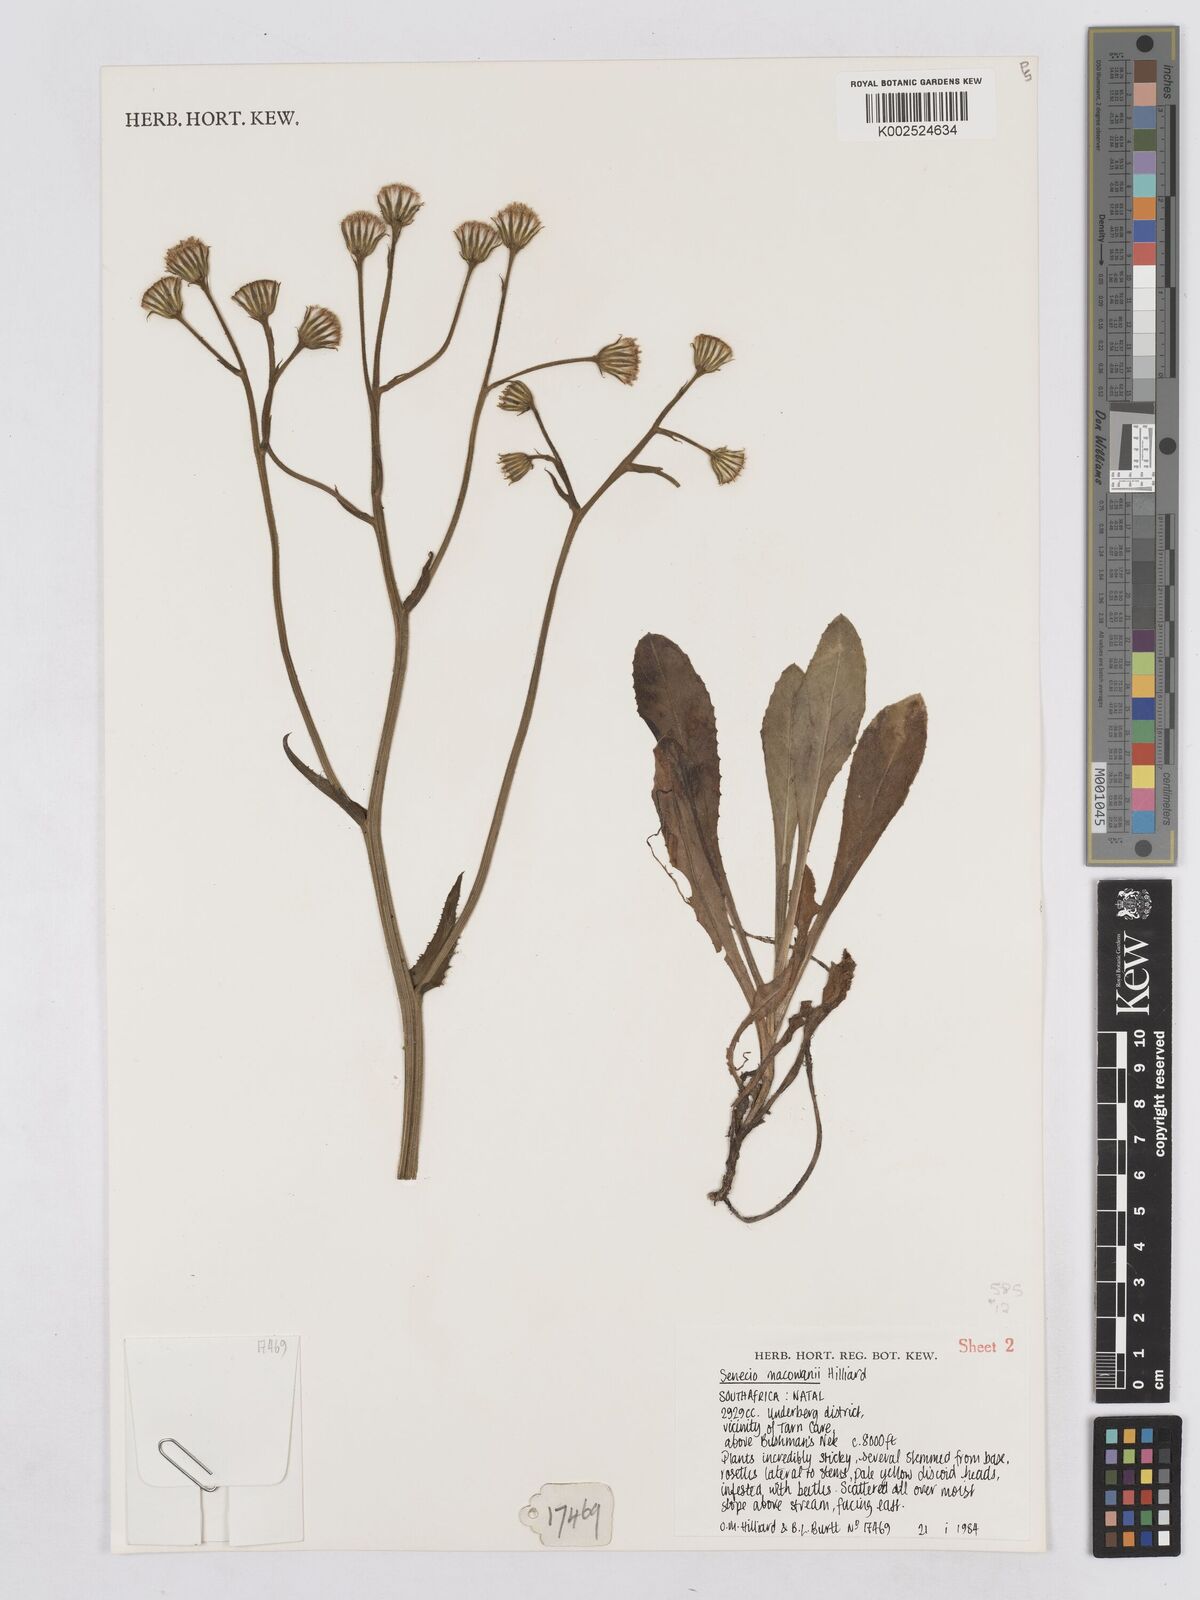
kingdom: Plantae
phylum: Tracheophyta
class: Magnoliopsida
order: Asterales
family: Asteraceae
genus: Senecio
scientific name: Senecio macowanii
